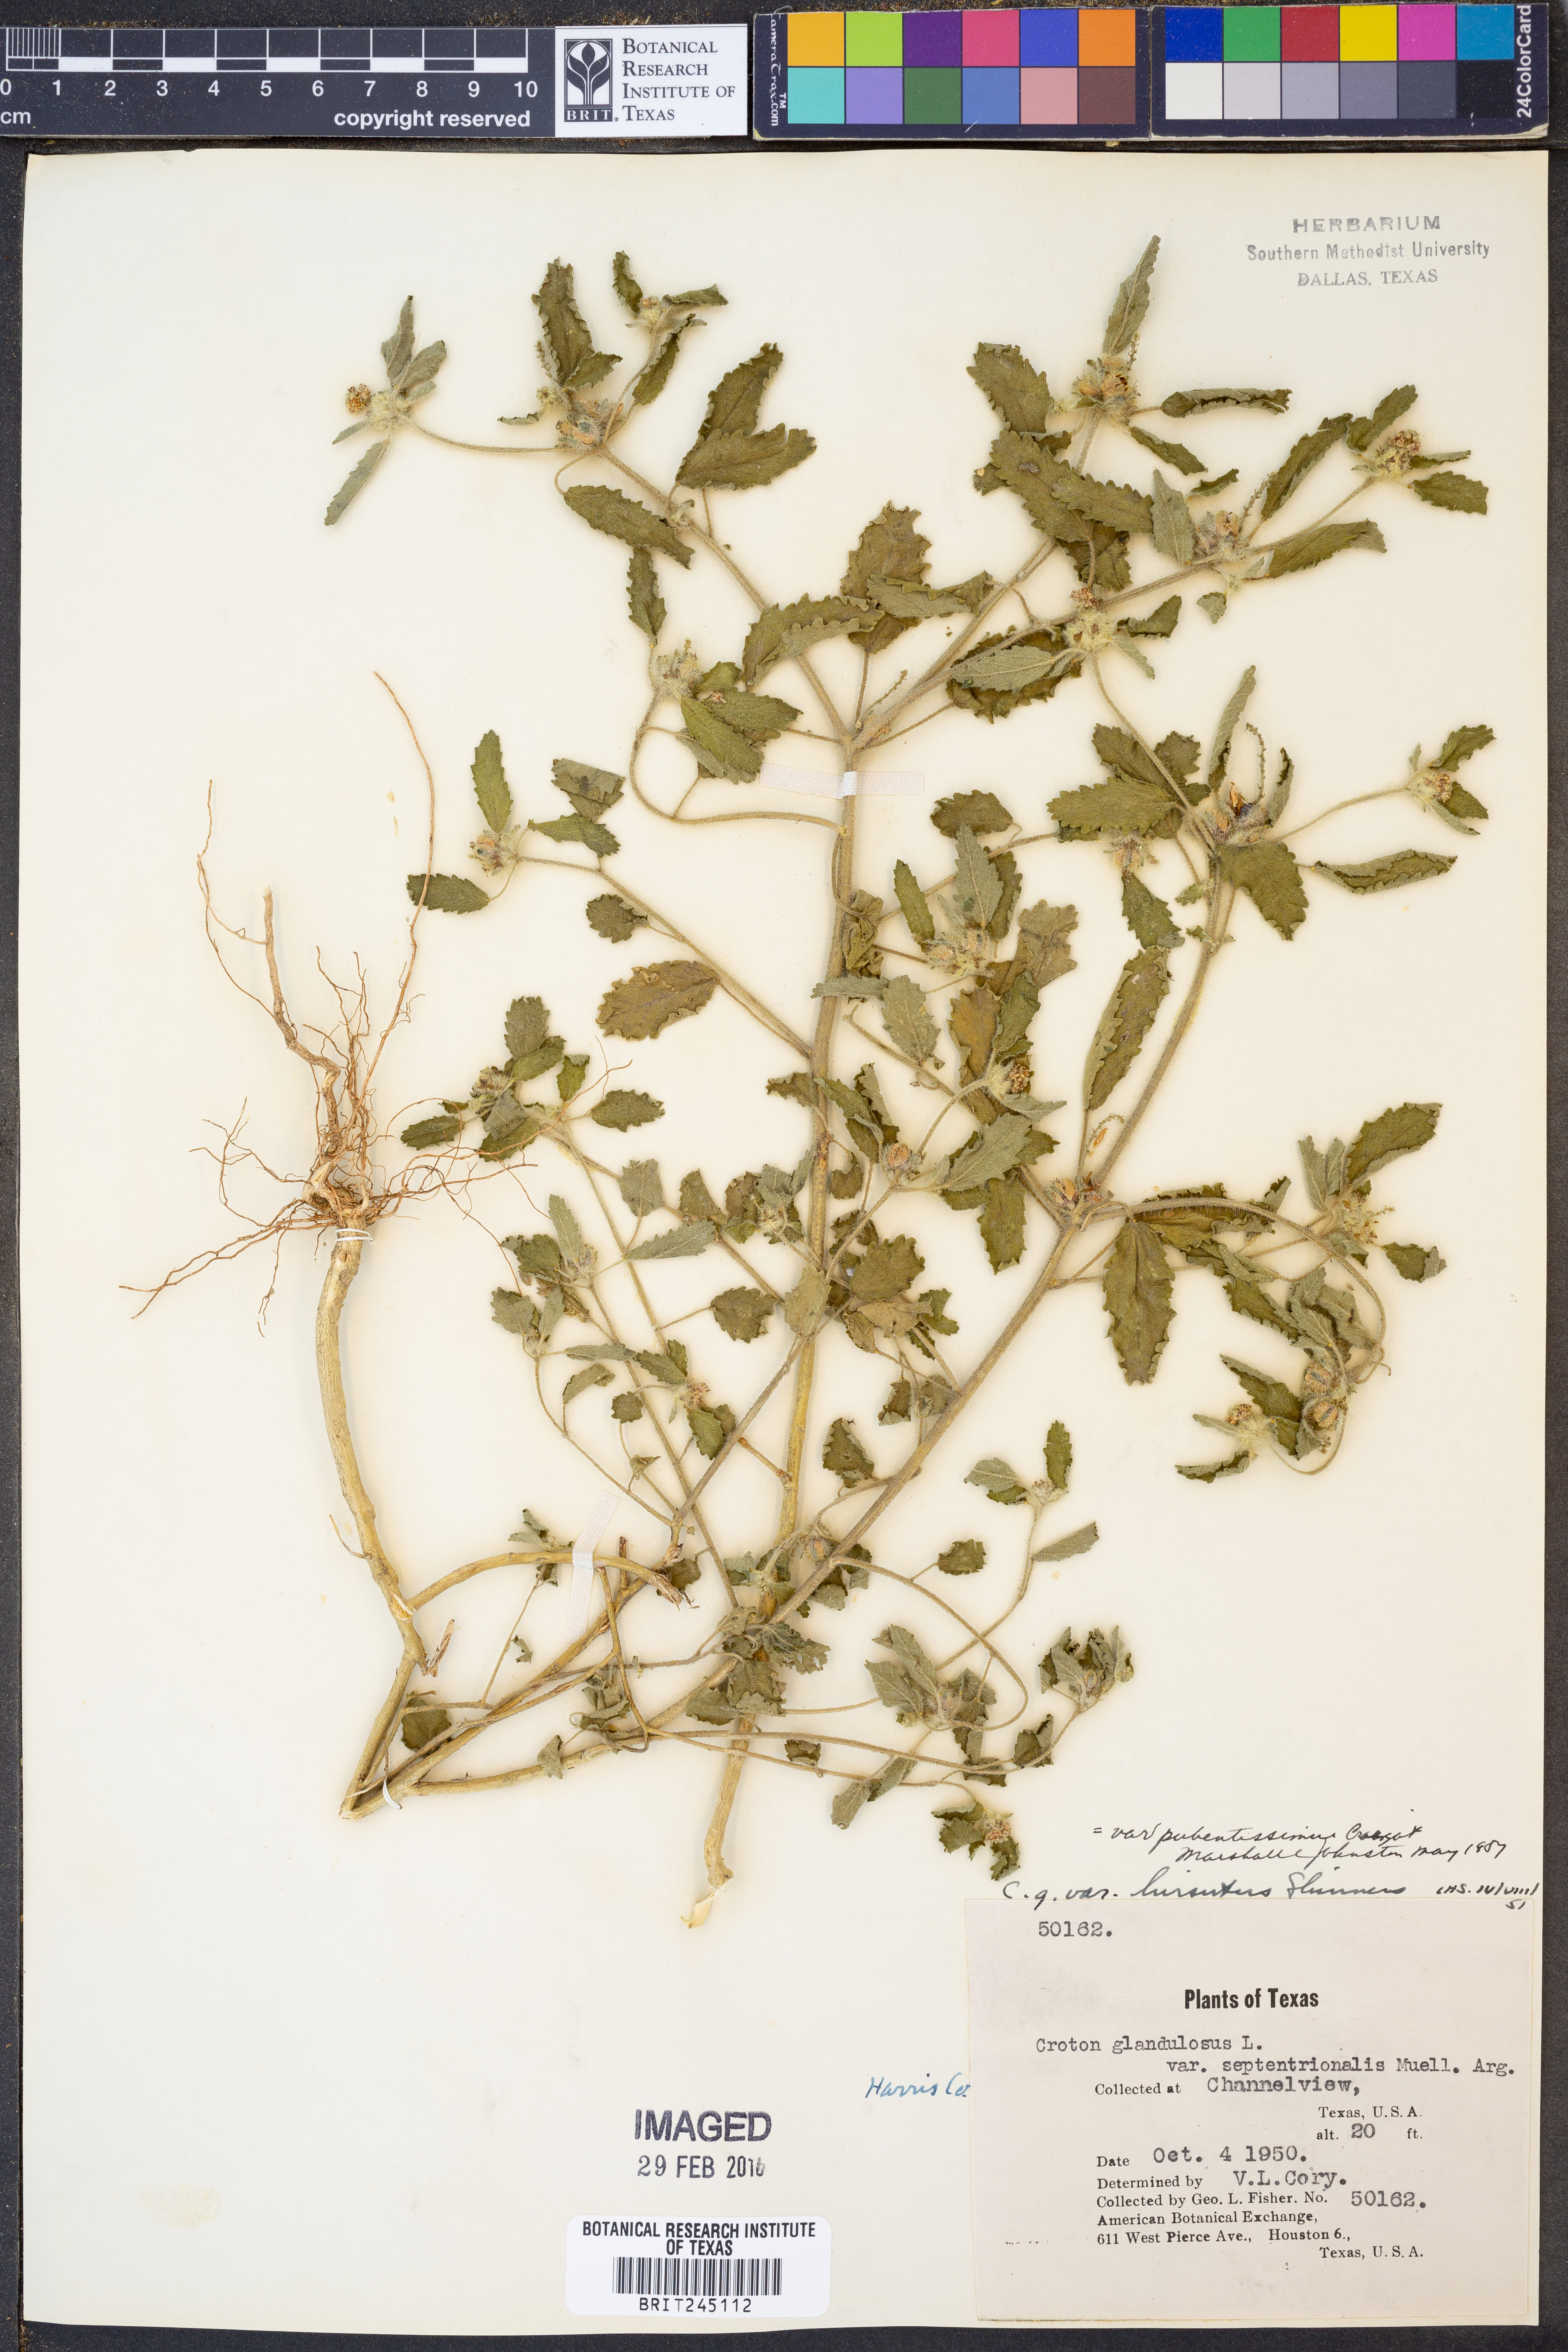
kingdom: Plantae
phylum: Tracheophyta
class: Magnoliopsida
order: Malpighiales
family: Euphorbiaceae
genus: Croton
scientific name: Croton glandulosus
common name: Tropic croton
